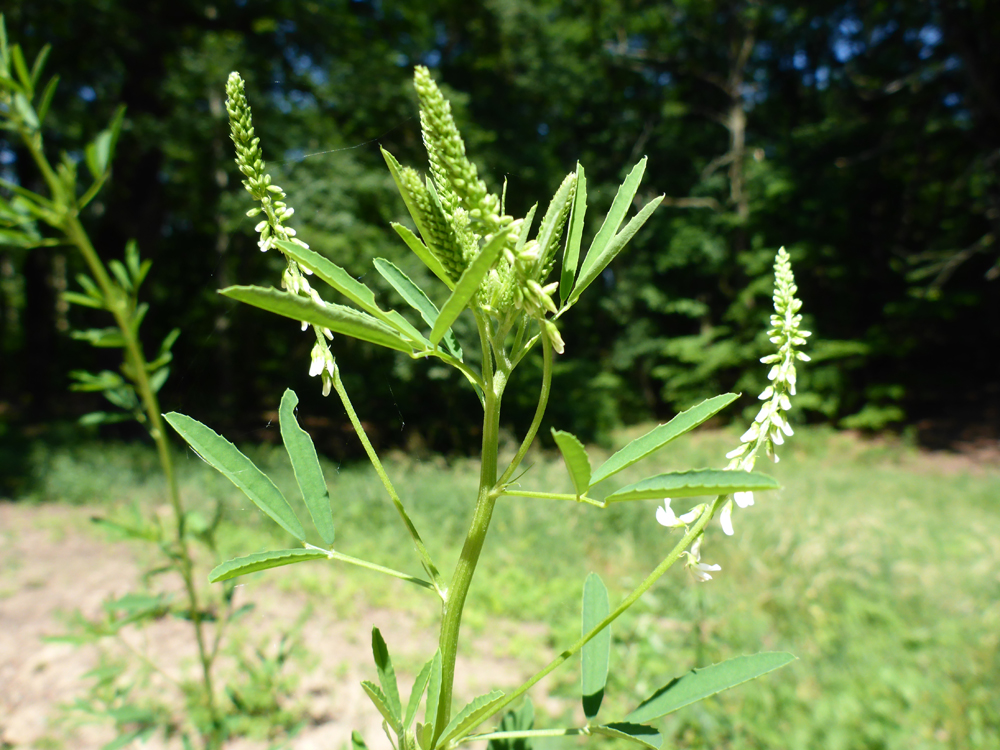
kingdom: Plantae
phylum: Tracheophyta
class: Magnoliopsida
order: Fabales
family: Fabaceae
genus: Melilotus
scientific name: Melilotus albus
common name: White melilot
